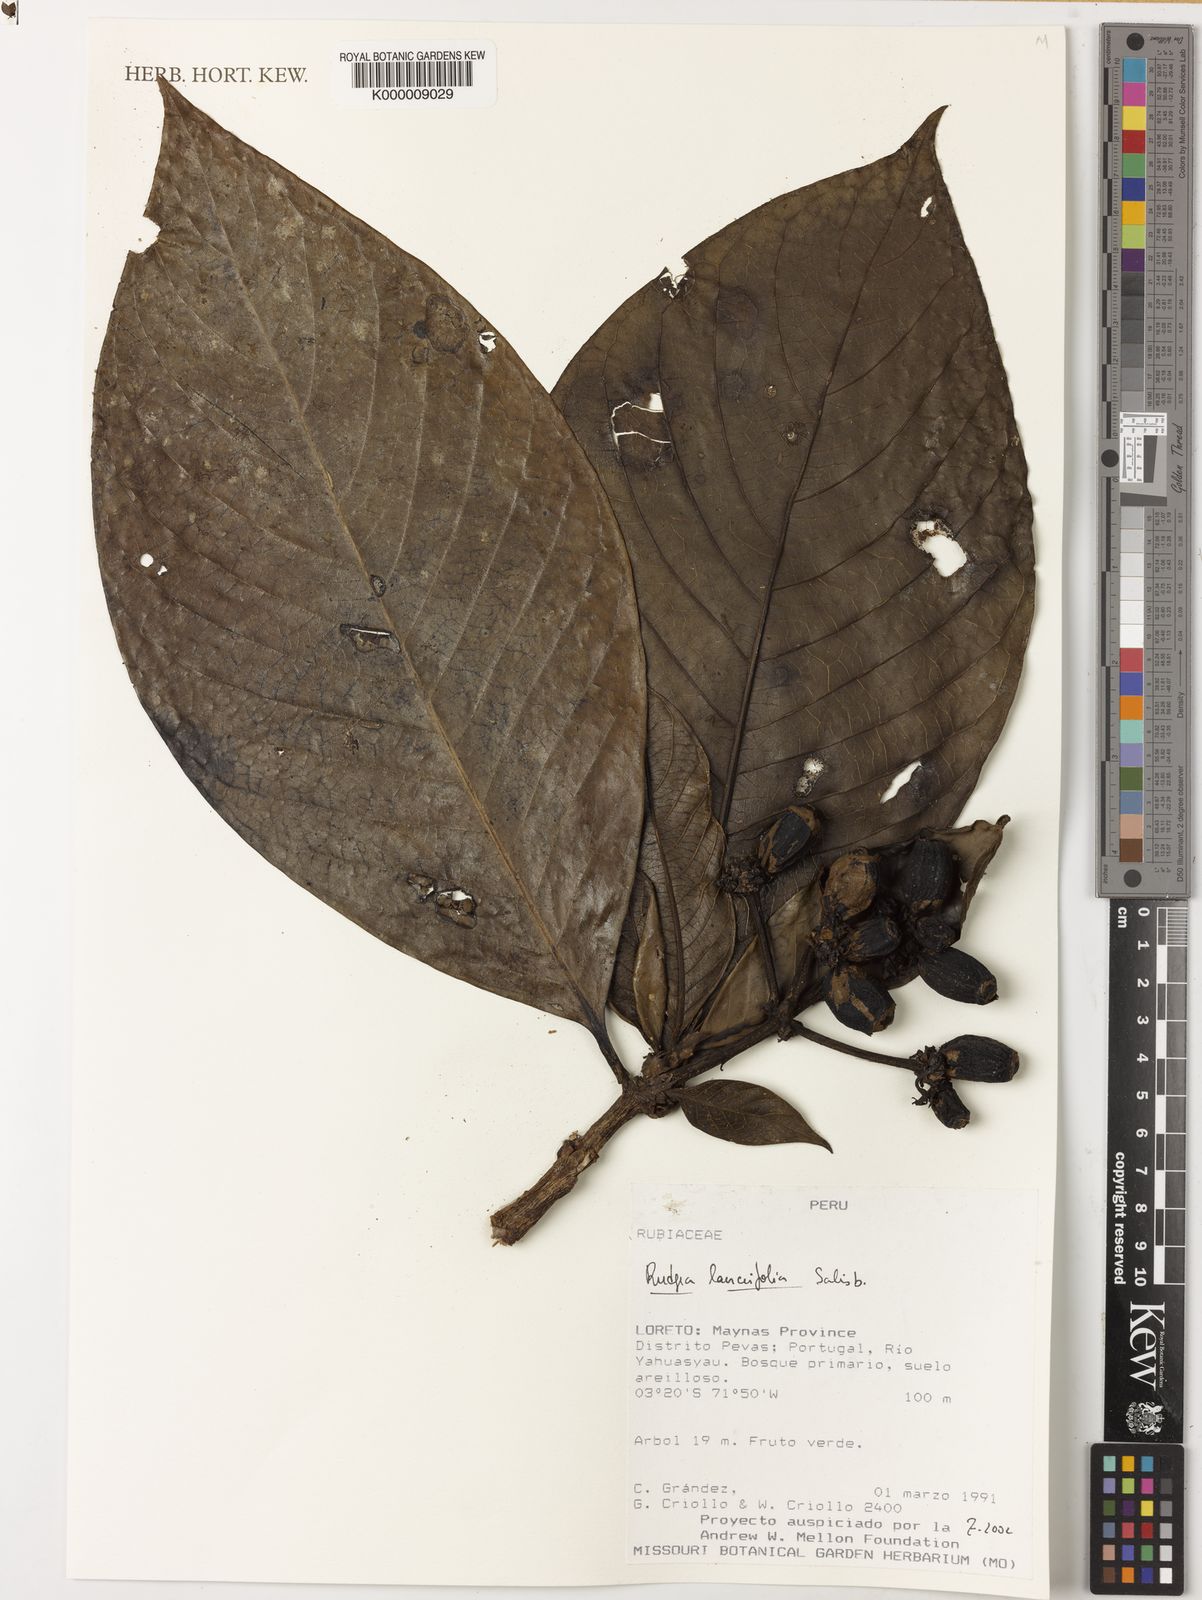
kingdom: Plantae
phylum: Tracheophyta
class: Magnoliopsida
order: Gentianales
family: Rubiaceae
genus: Rudgea
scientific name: Rudgea lanceifolia
